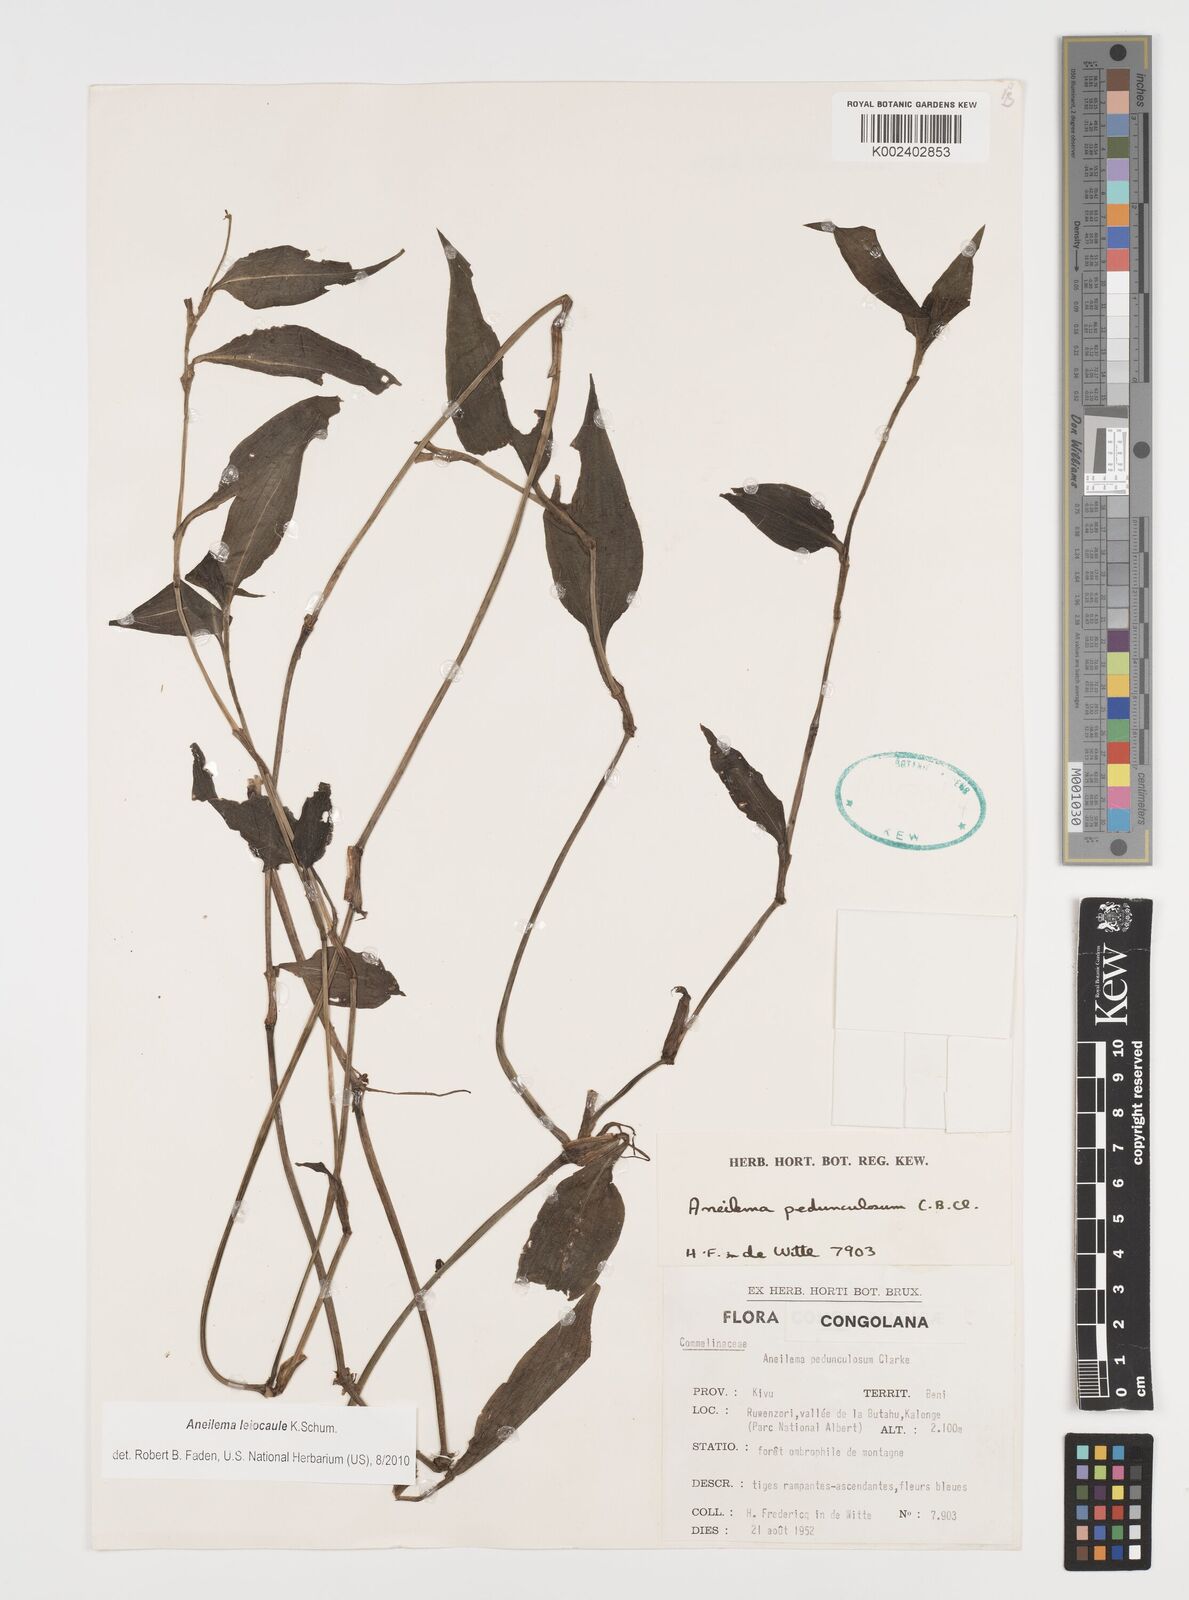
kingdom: Plantae
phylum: Tracheophyta
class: Liliopsida
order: Commelinales
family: Commelinaceae
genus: Aneilema
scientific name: Aneilema leiocaule
